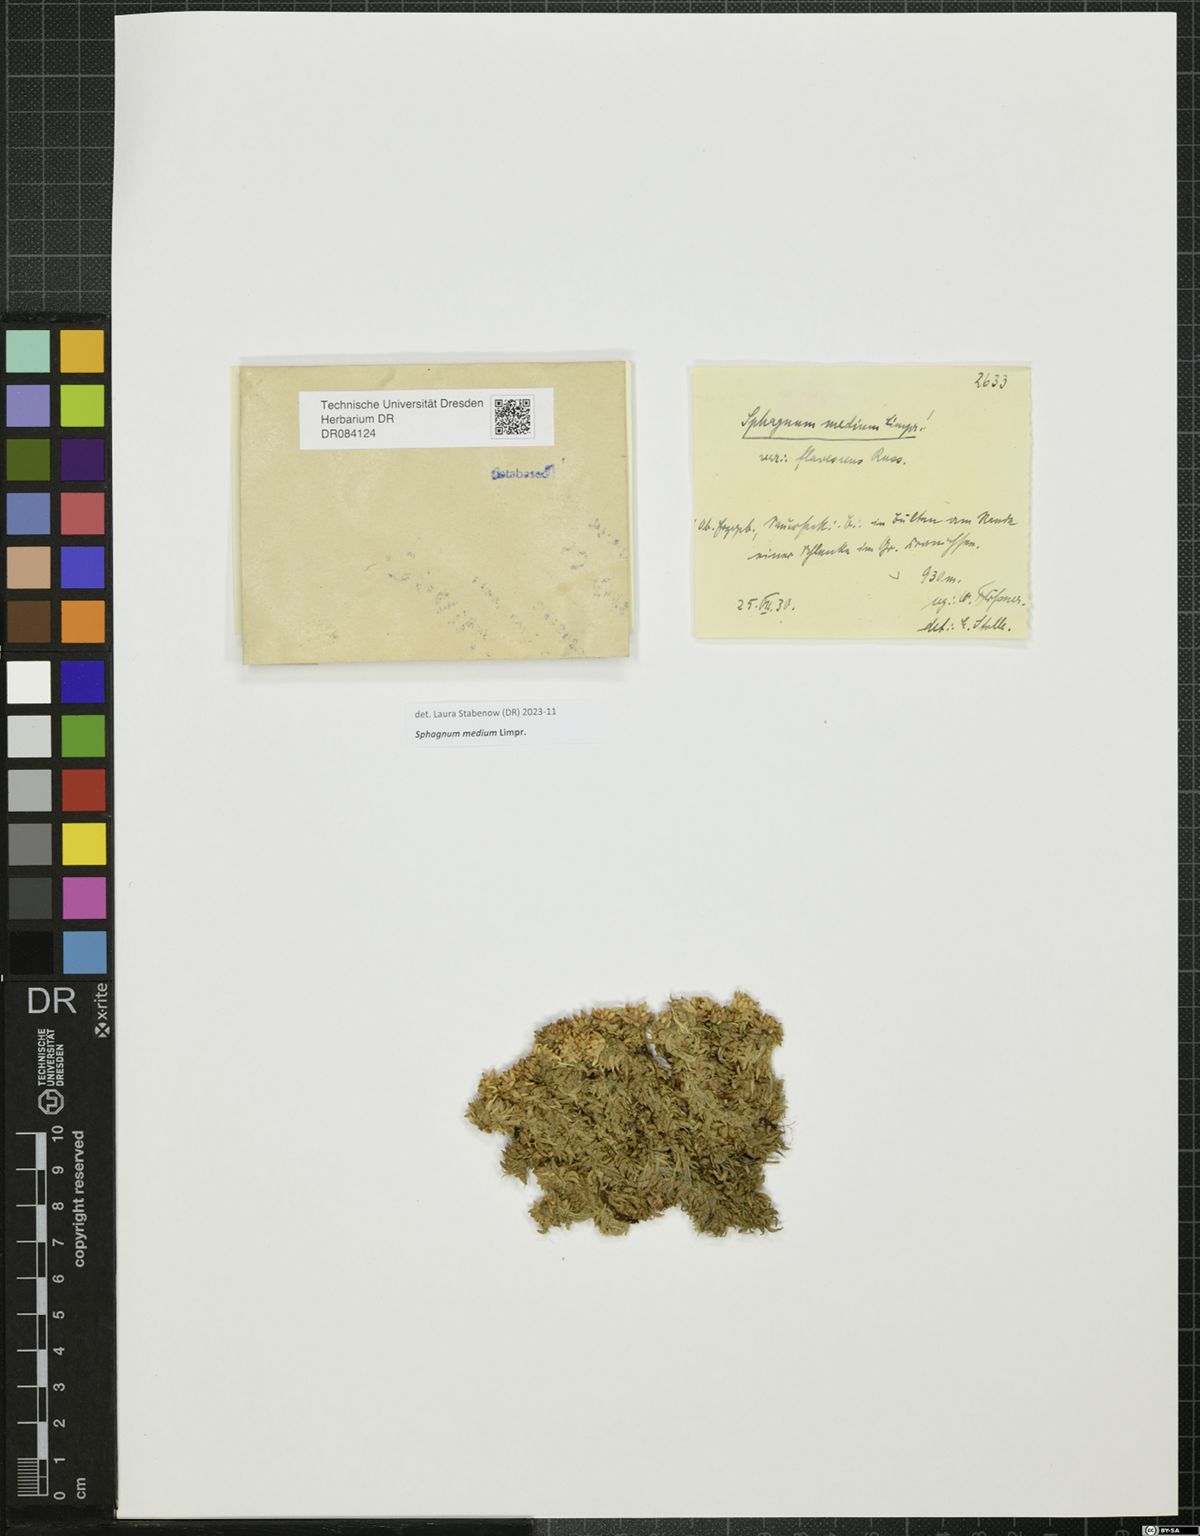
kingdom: Plantae
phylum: Bryophyta
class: Sphagnopsida
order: Sphagnales
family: Sphagnaceae
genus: Sphagnum
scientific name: Sphagnum medium
